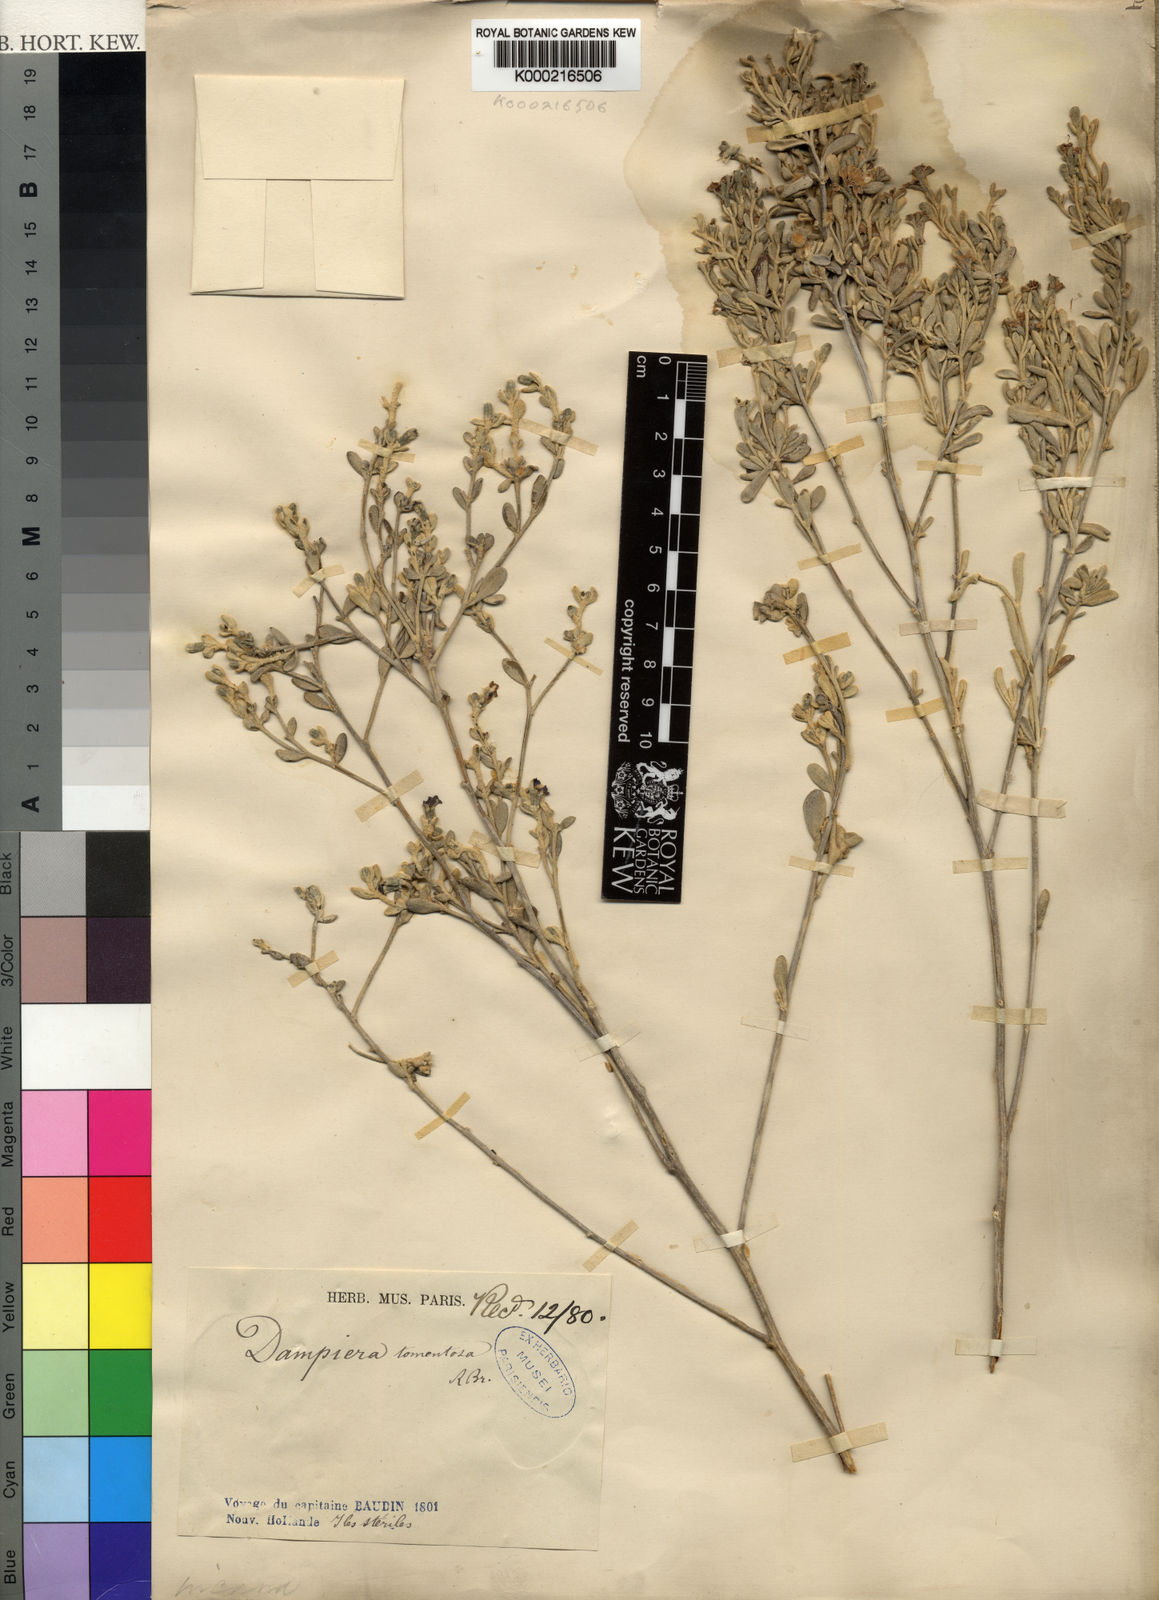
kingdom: Plantae
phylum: Tracheophyta
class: Magnoliopsida
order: Asterales
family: Goodeniaceae
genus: Dampiera
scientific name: Dampiera
